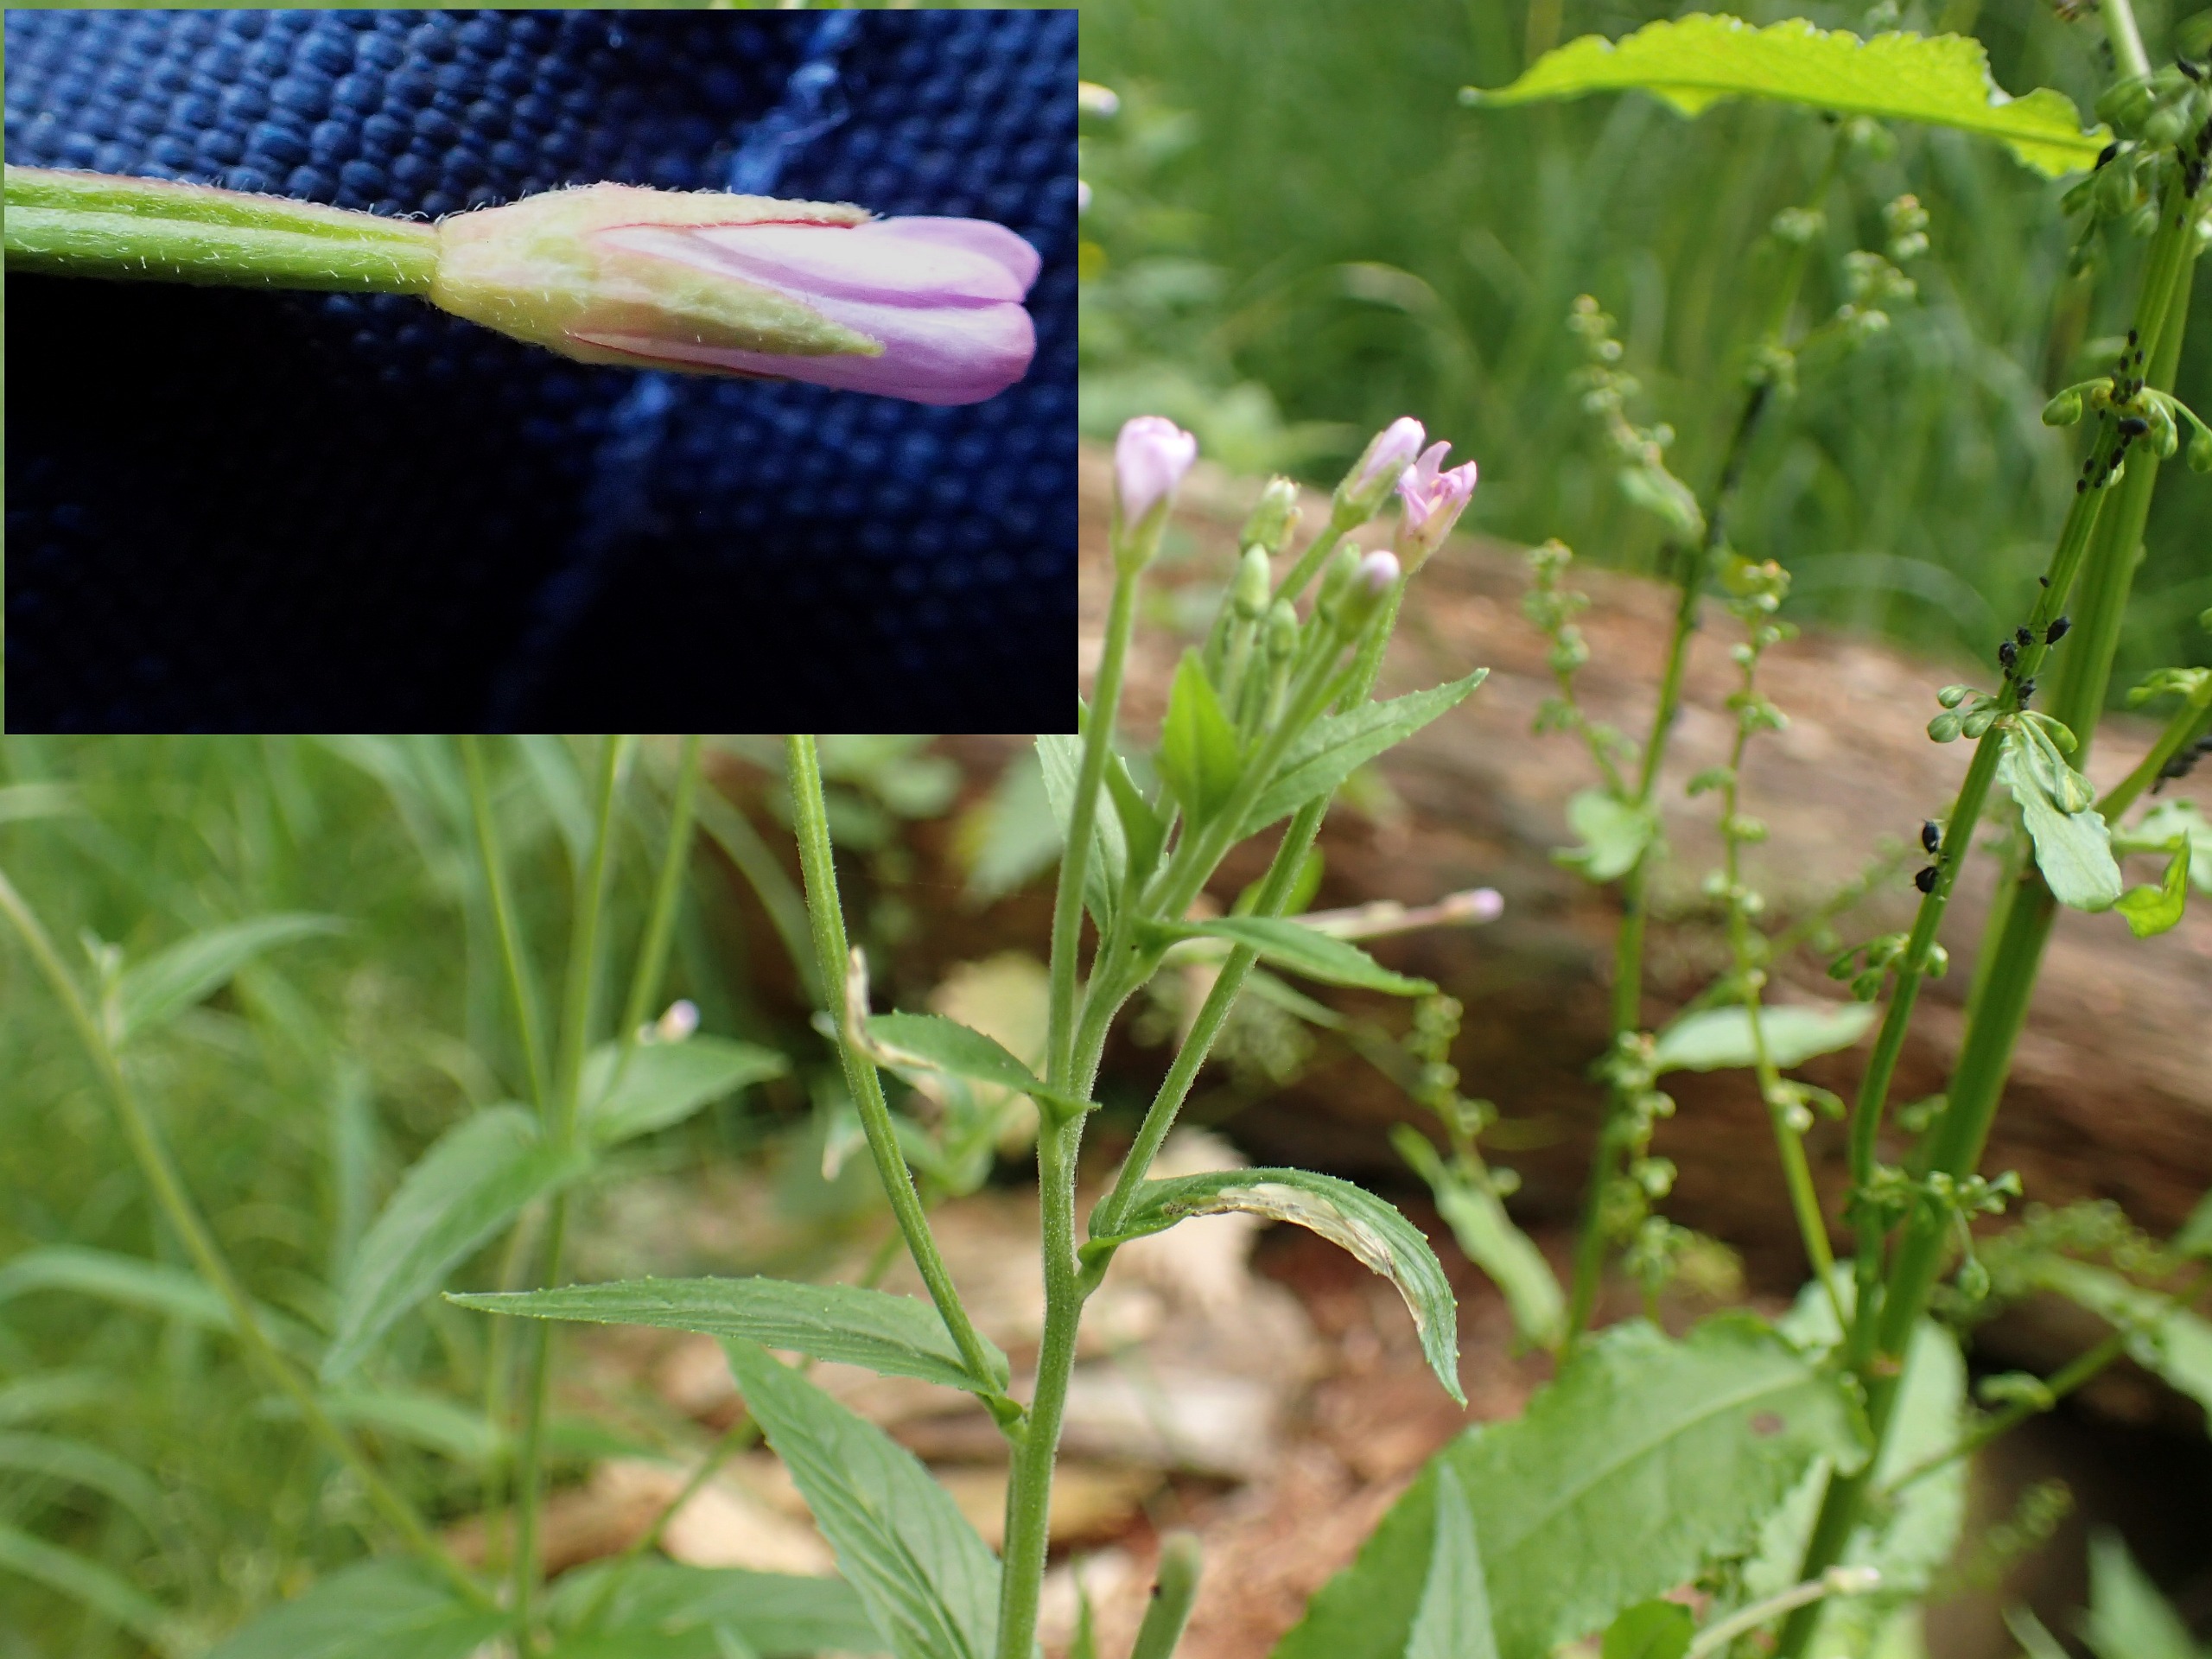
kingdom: Plantae
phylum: Tracheophyta
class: Magnoliopsida
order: Myrtales
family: Onagraceae
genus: Epilobium
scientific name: Epilobium ciliatum
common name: Kirtlet dueurt
